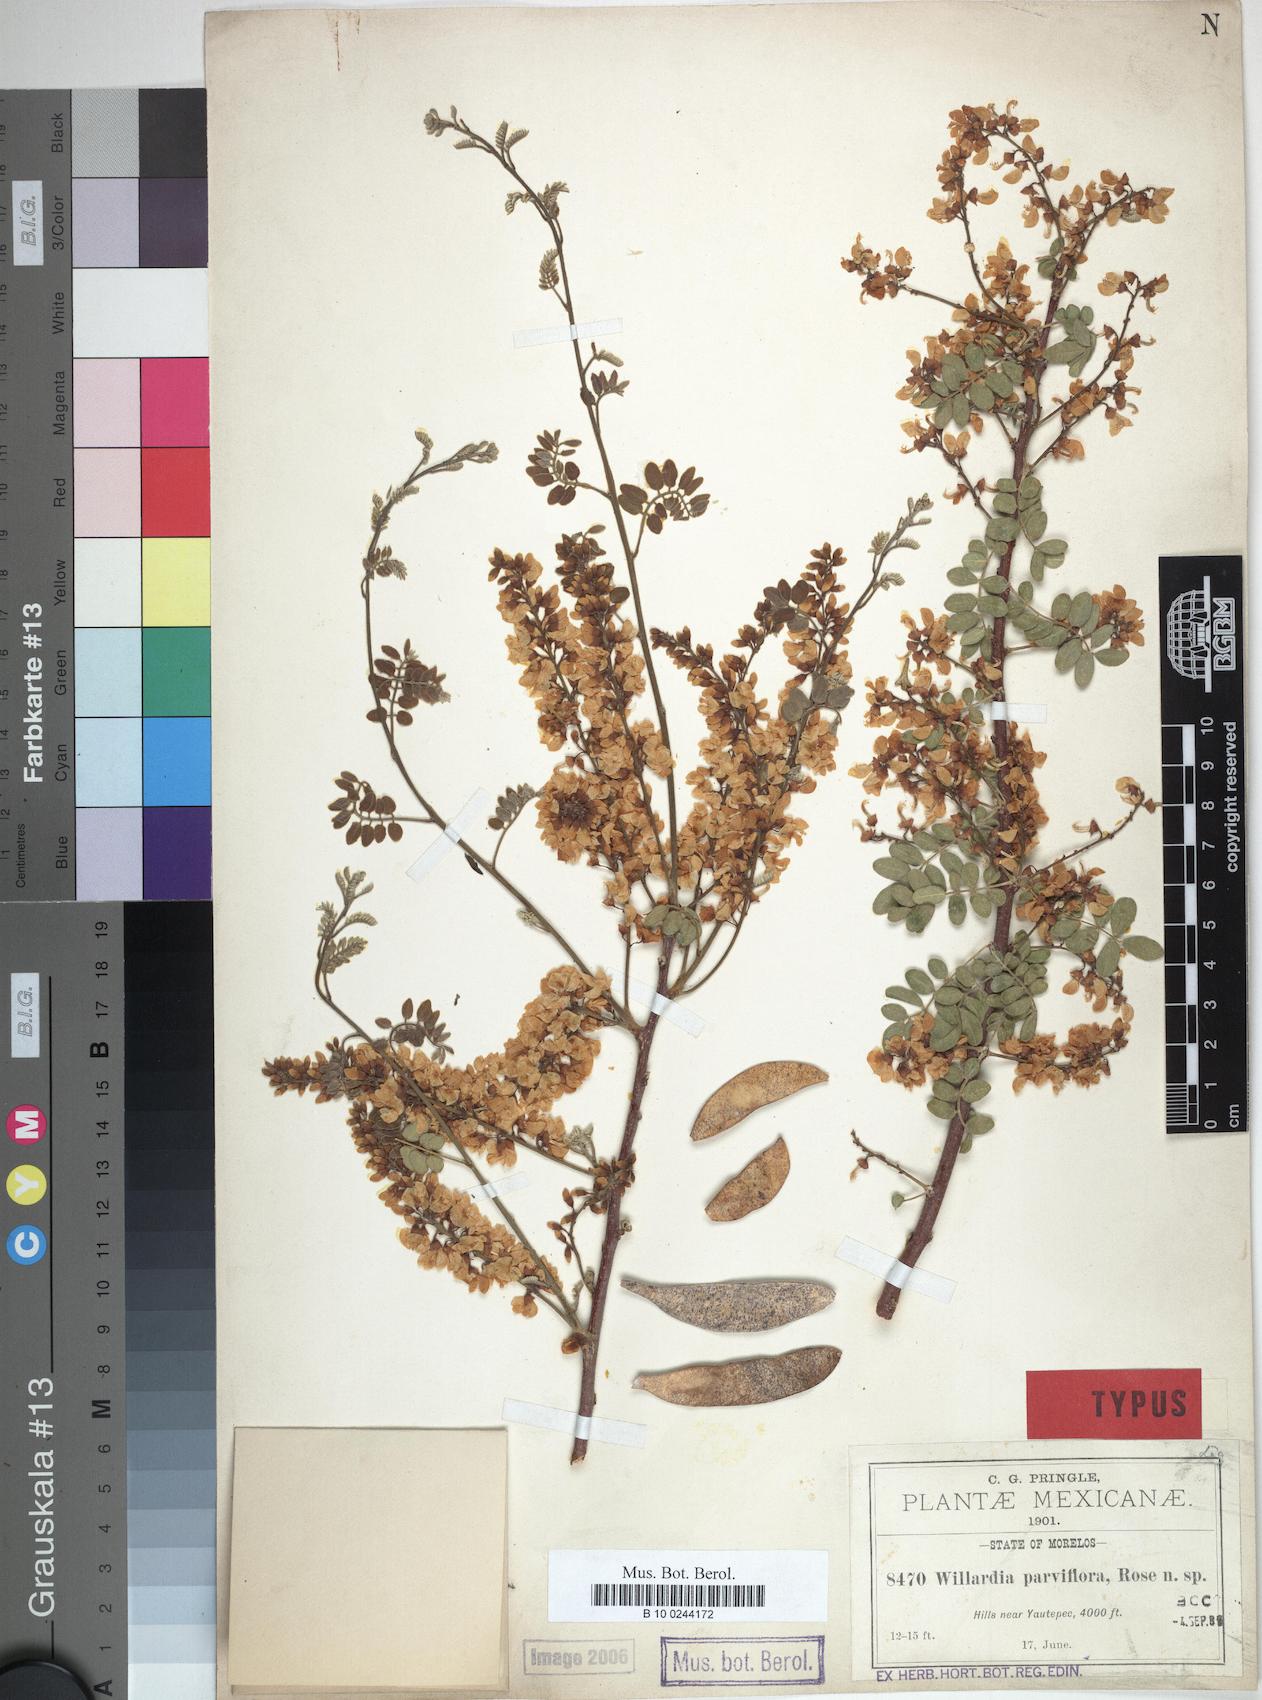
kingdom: Plantae
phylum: Tracheophyta
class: Magnoliopsida
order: Fabales
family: Fabaceae
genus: Lonchocarpus
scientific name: Lonchocarpus andrieuxii
